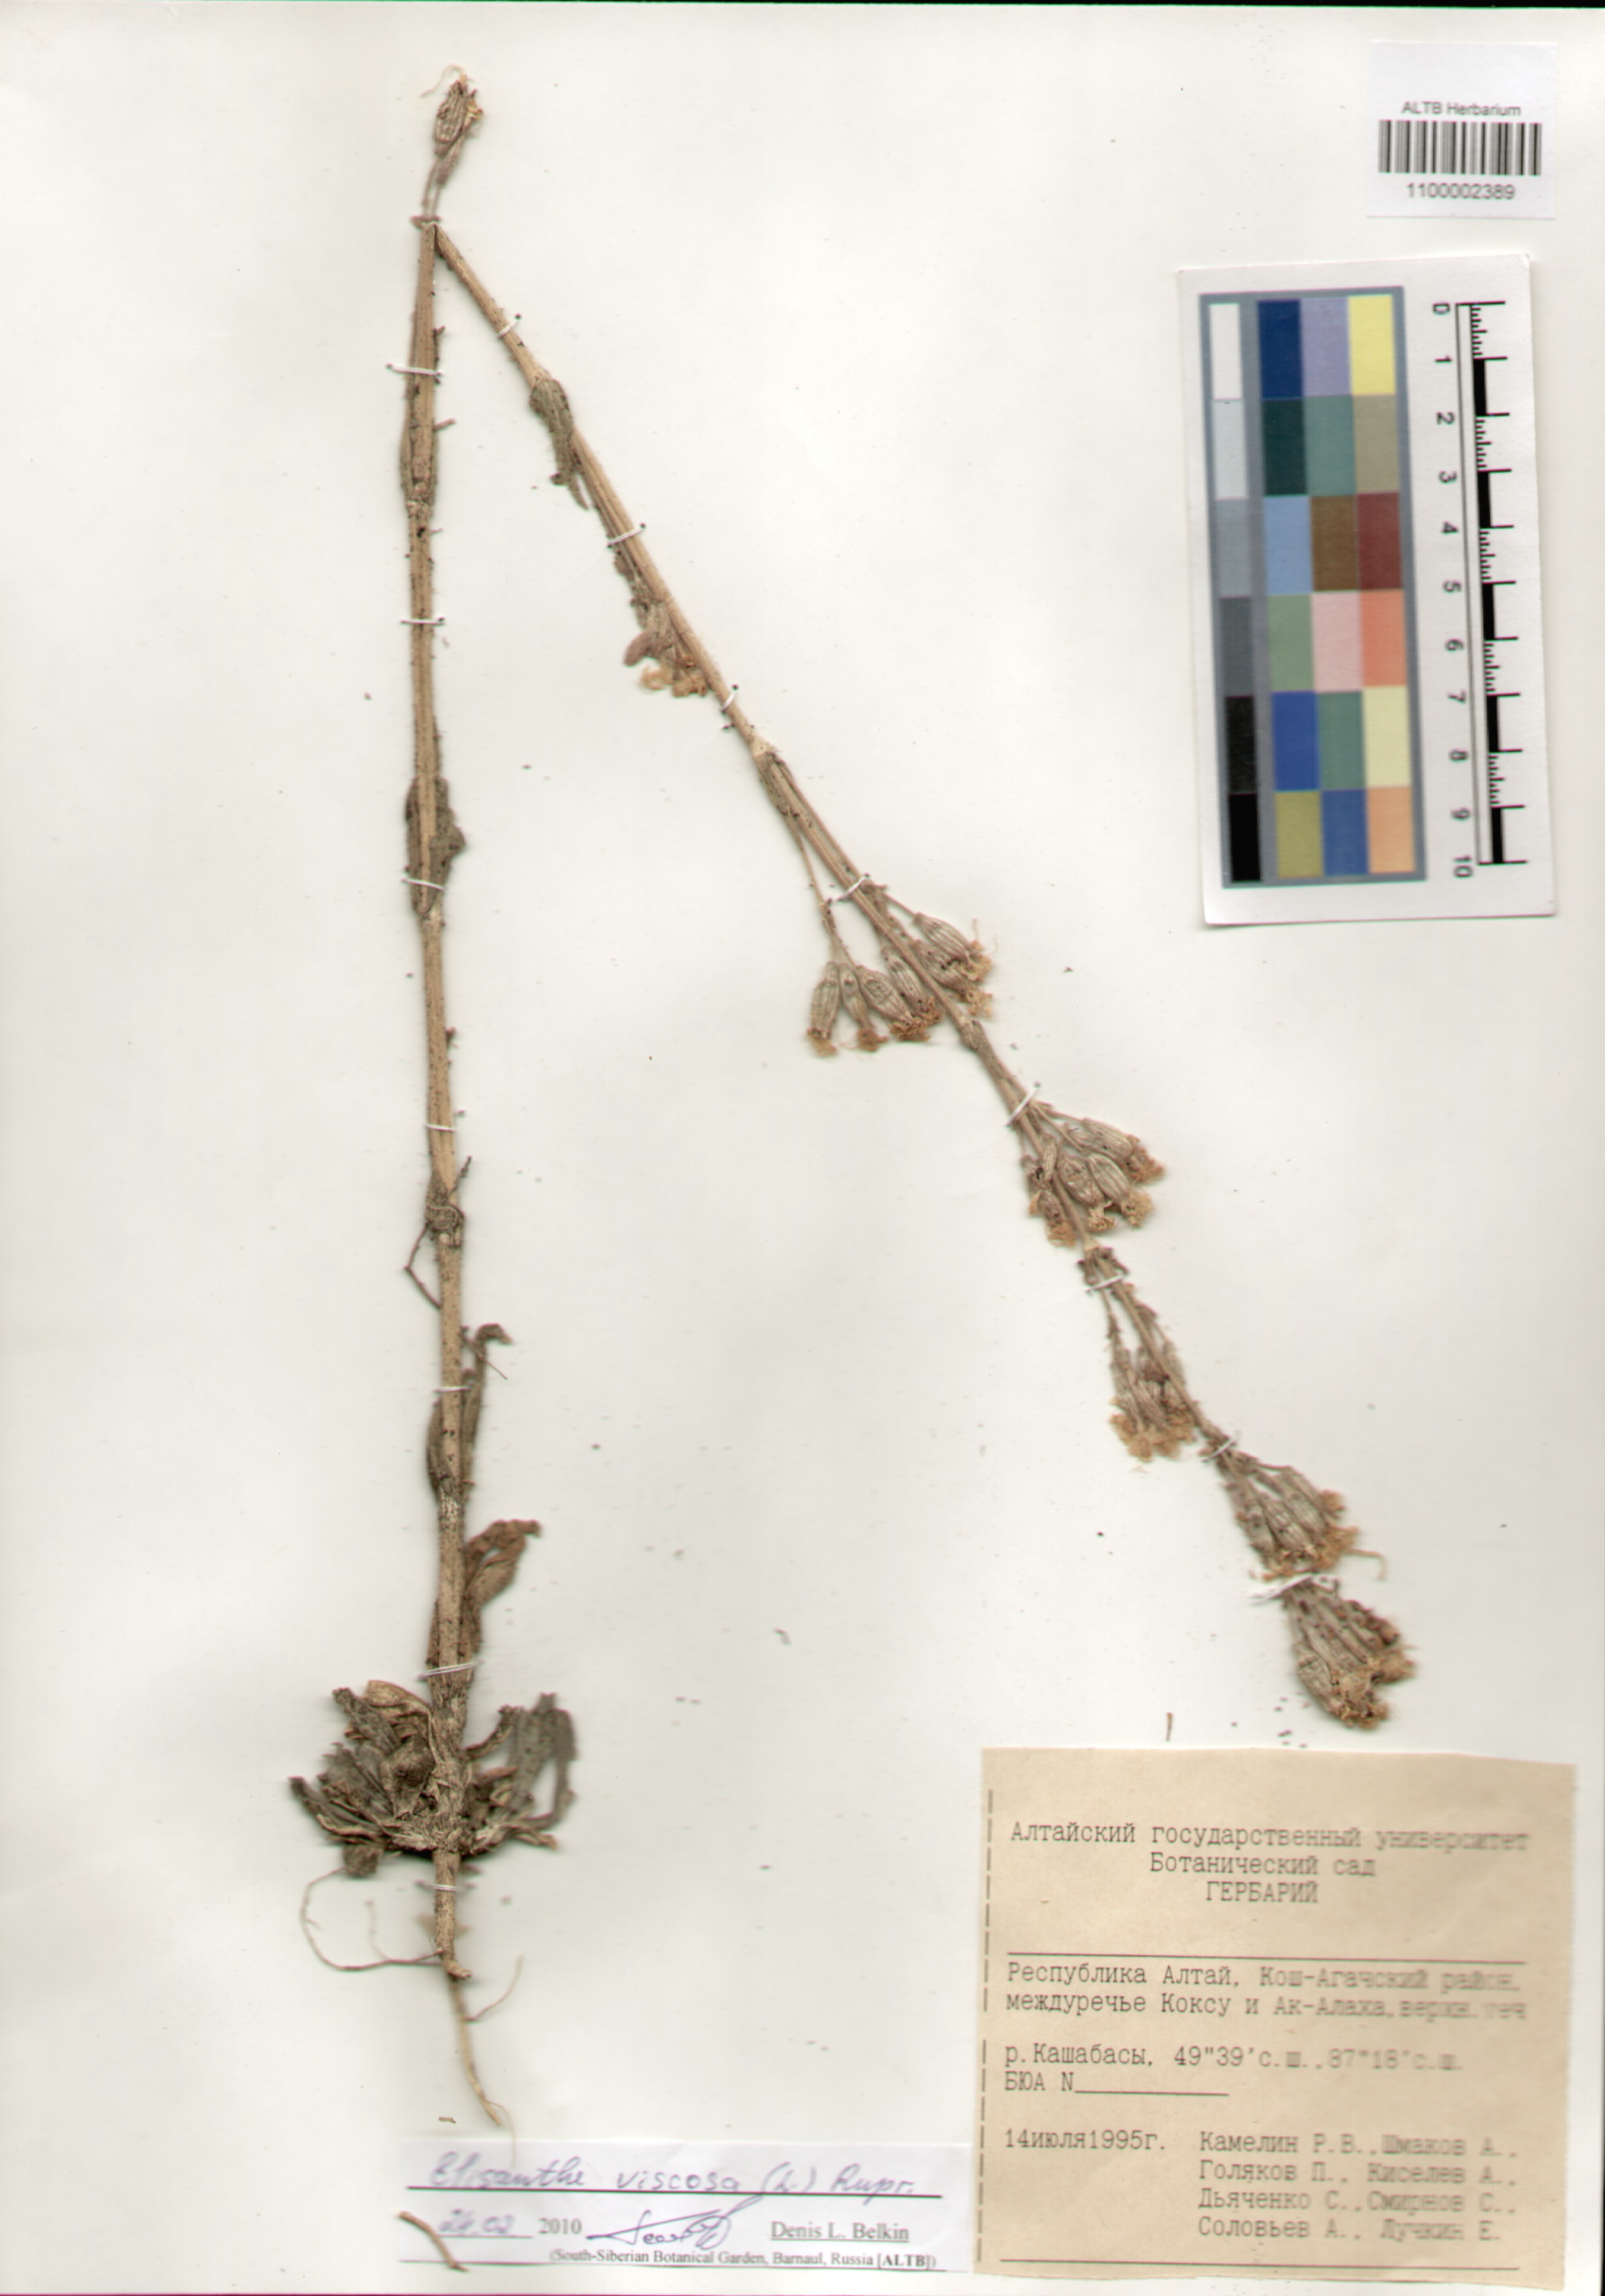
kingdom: Plantae
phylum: Tracheophyta
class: Magnoliopsida
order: Caryophyllales
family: Caryophyllaceae
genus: Silene
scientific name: Silene viscosa
